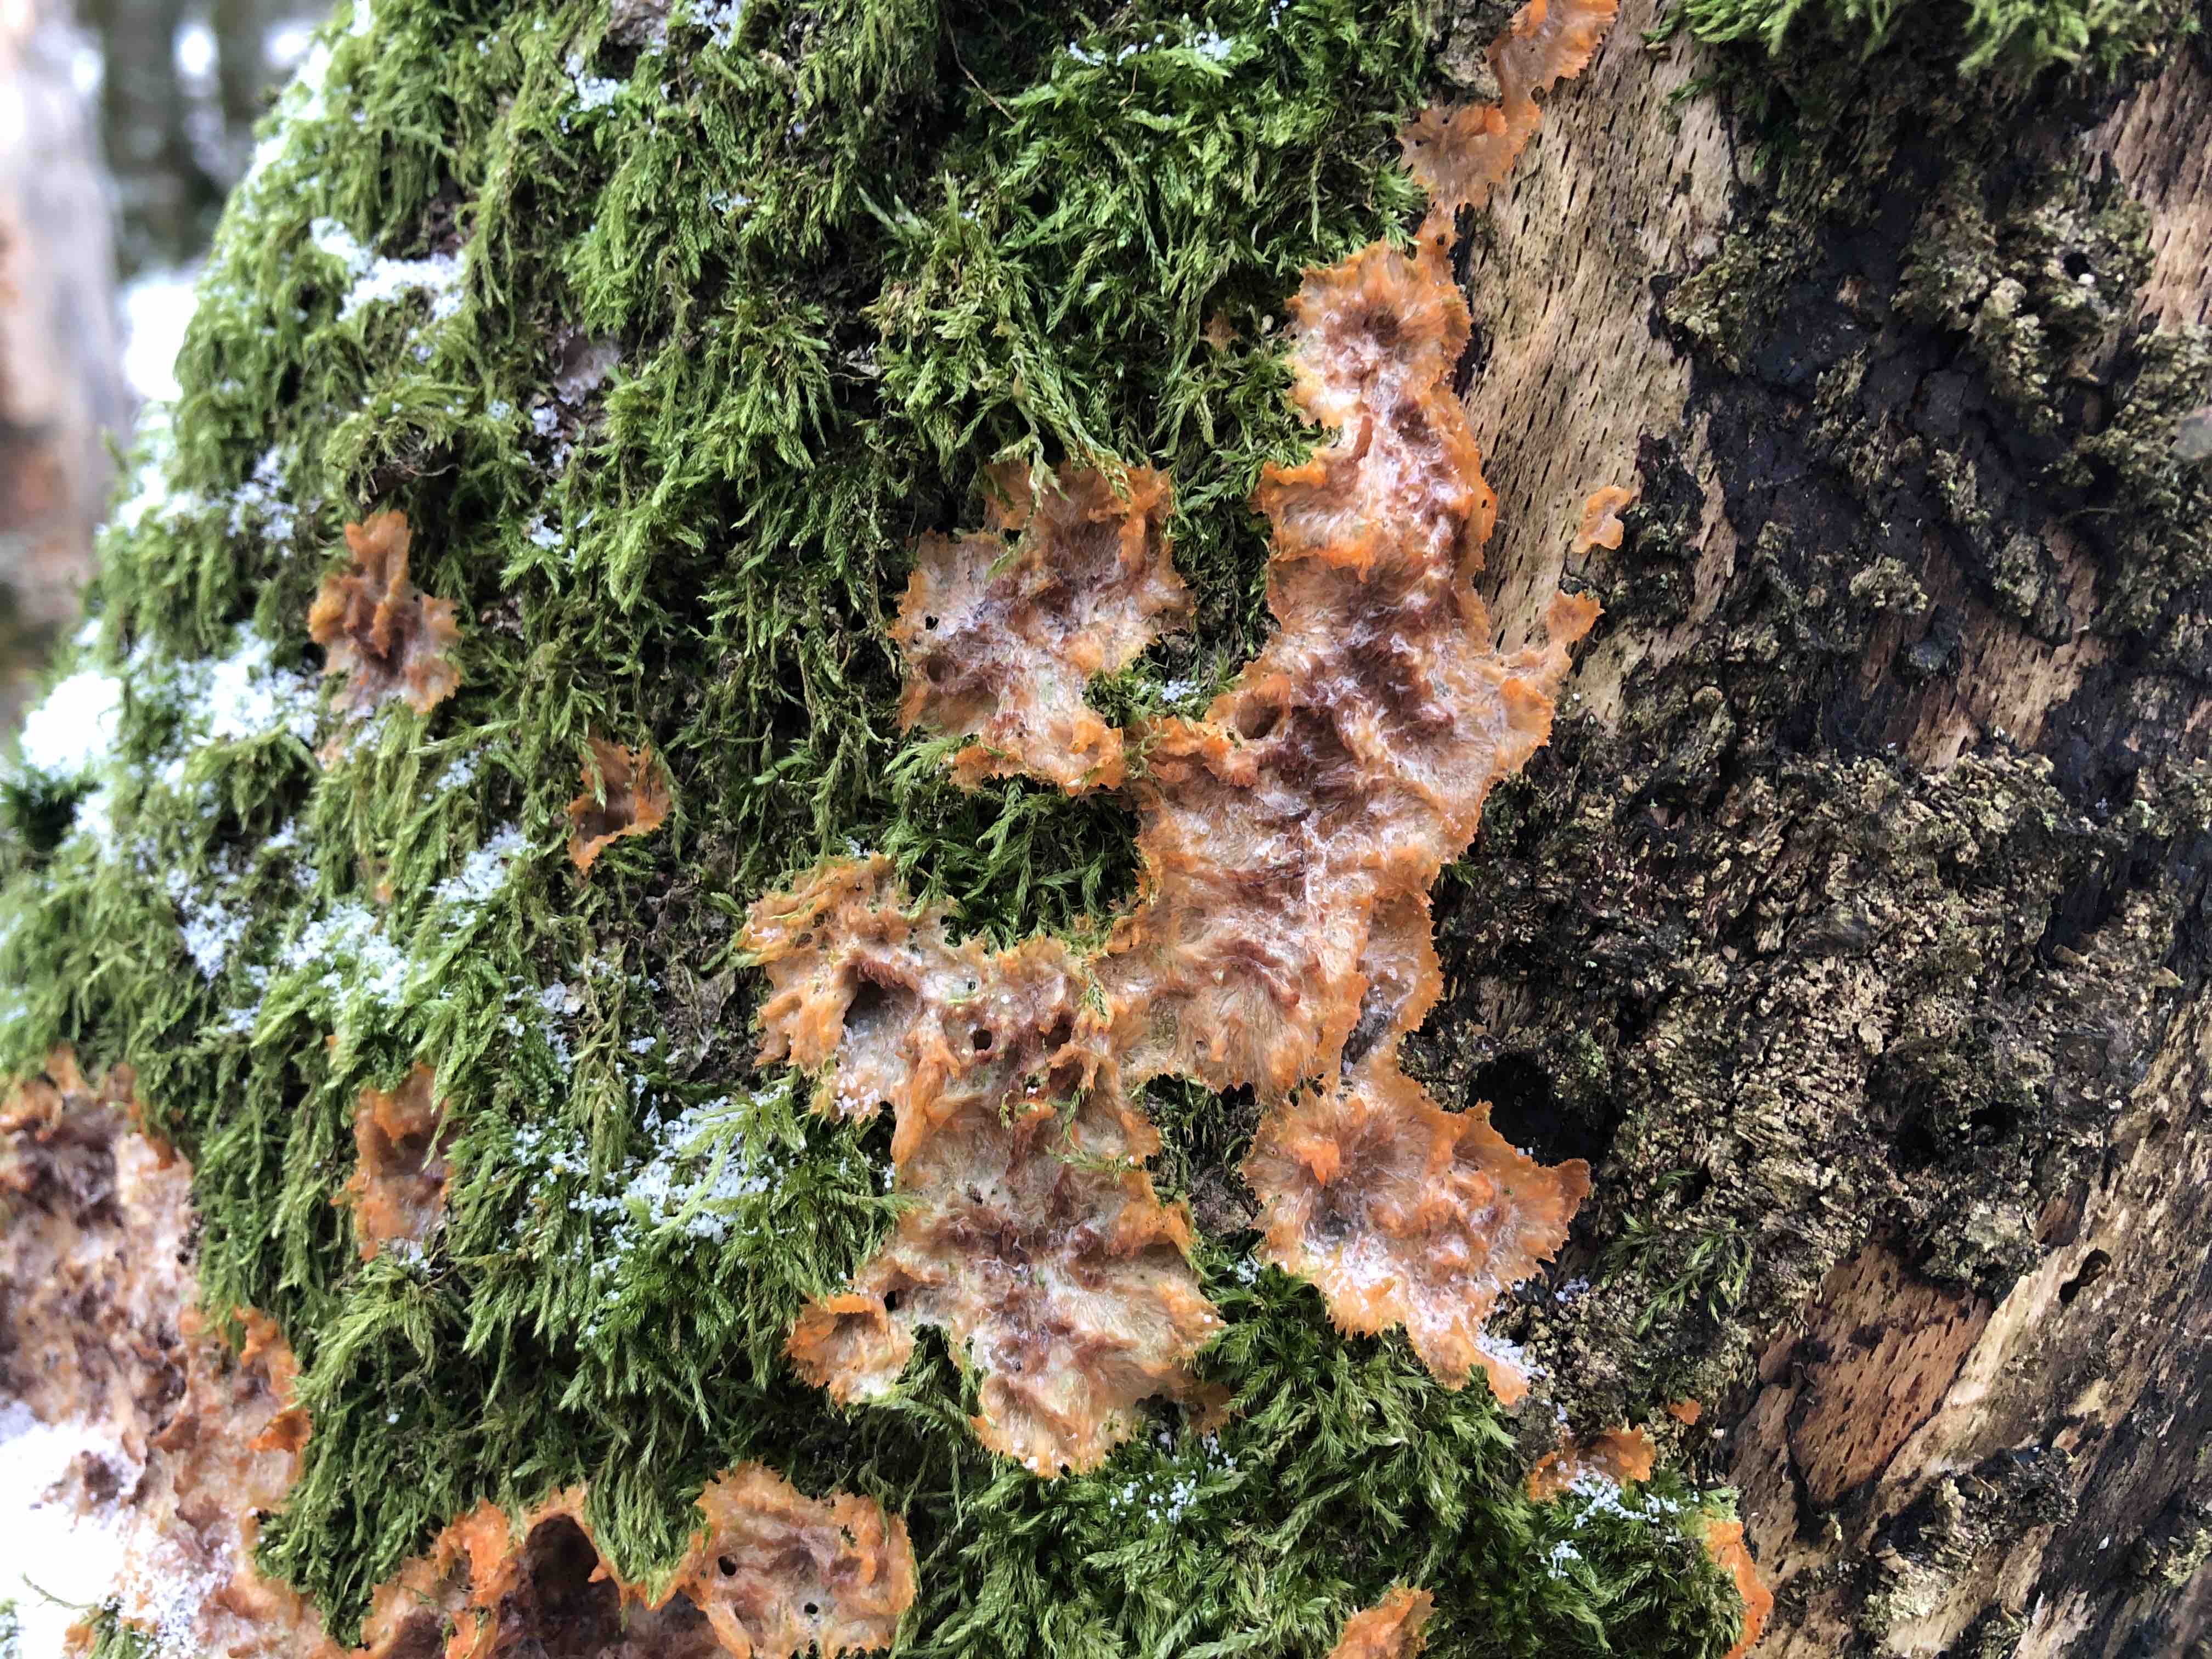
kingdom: Fungi
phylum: Basidiomycota
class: Agaricomycetes
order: Polyporales
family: Meruliaceae
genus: Phlebia
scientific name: Phlebia radiata
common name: stråle-åresvamp
